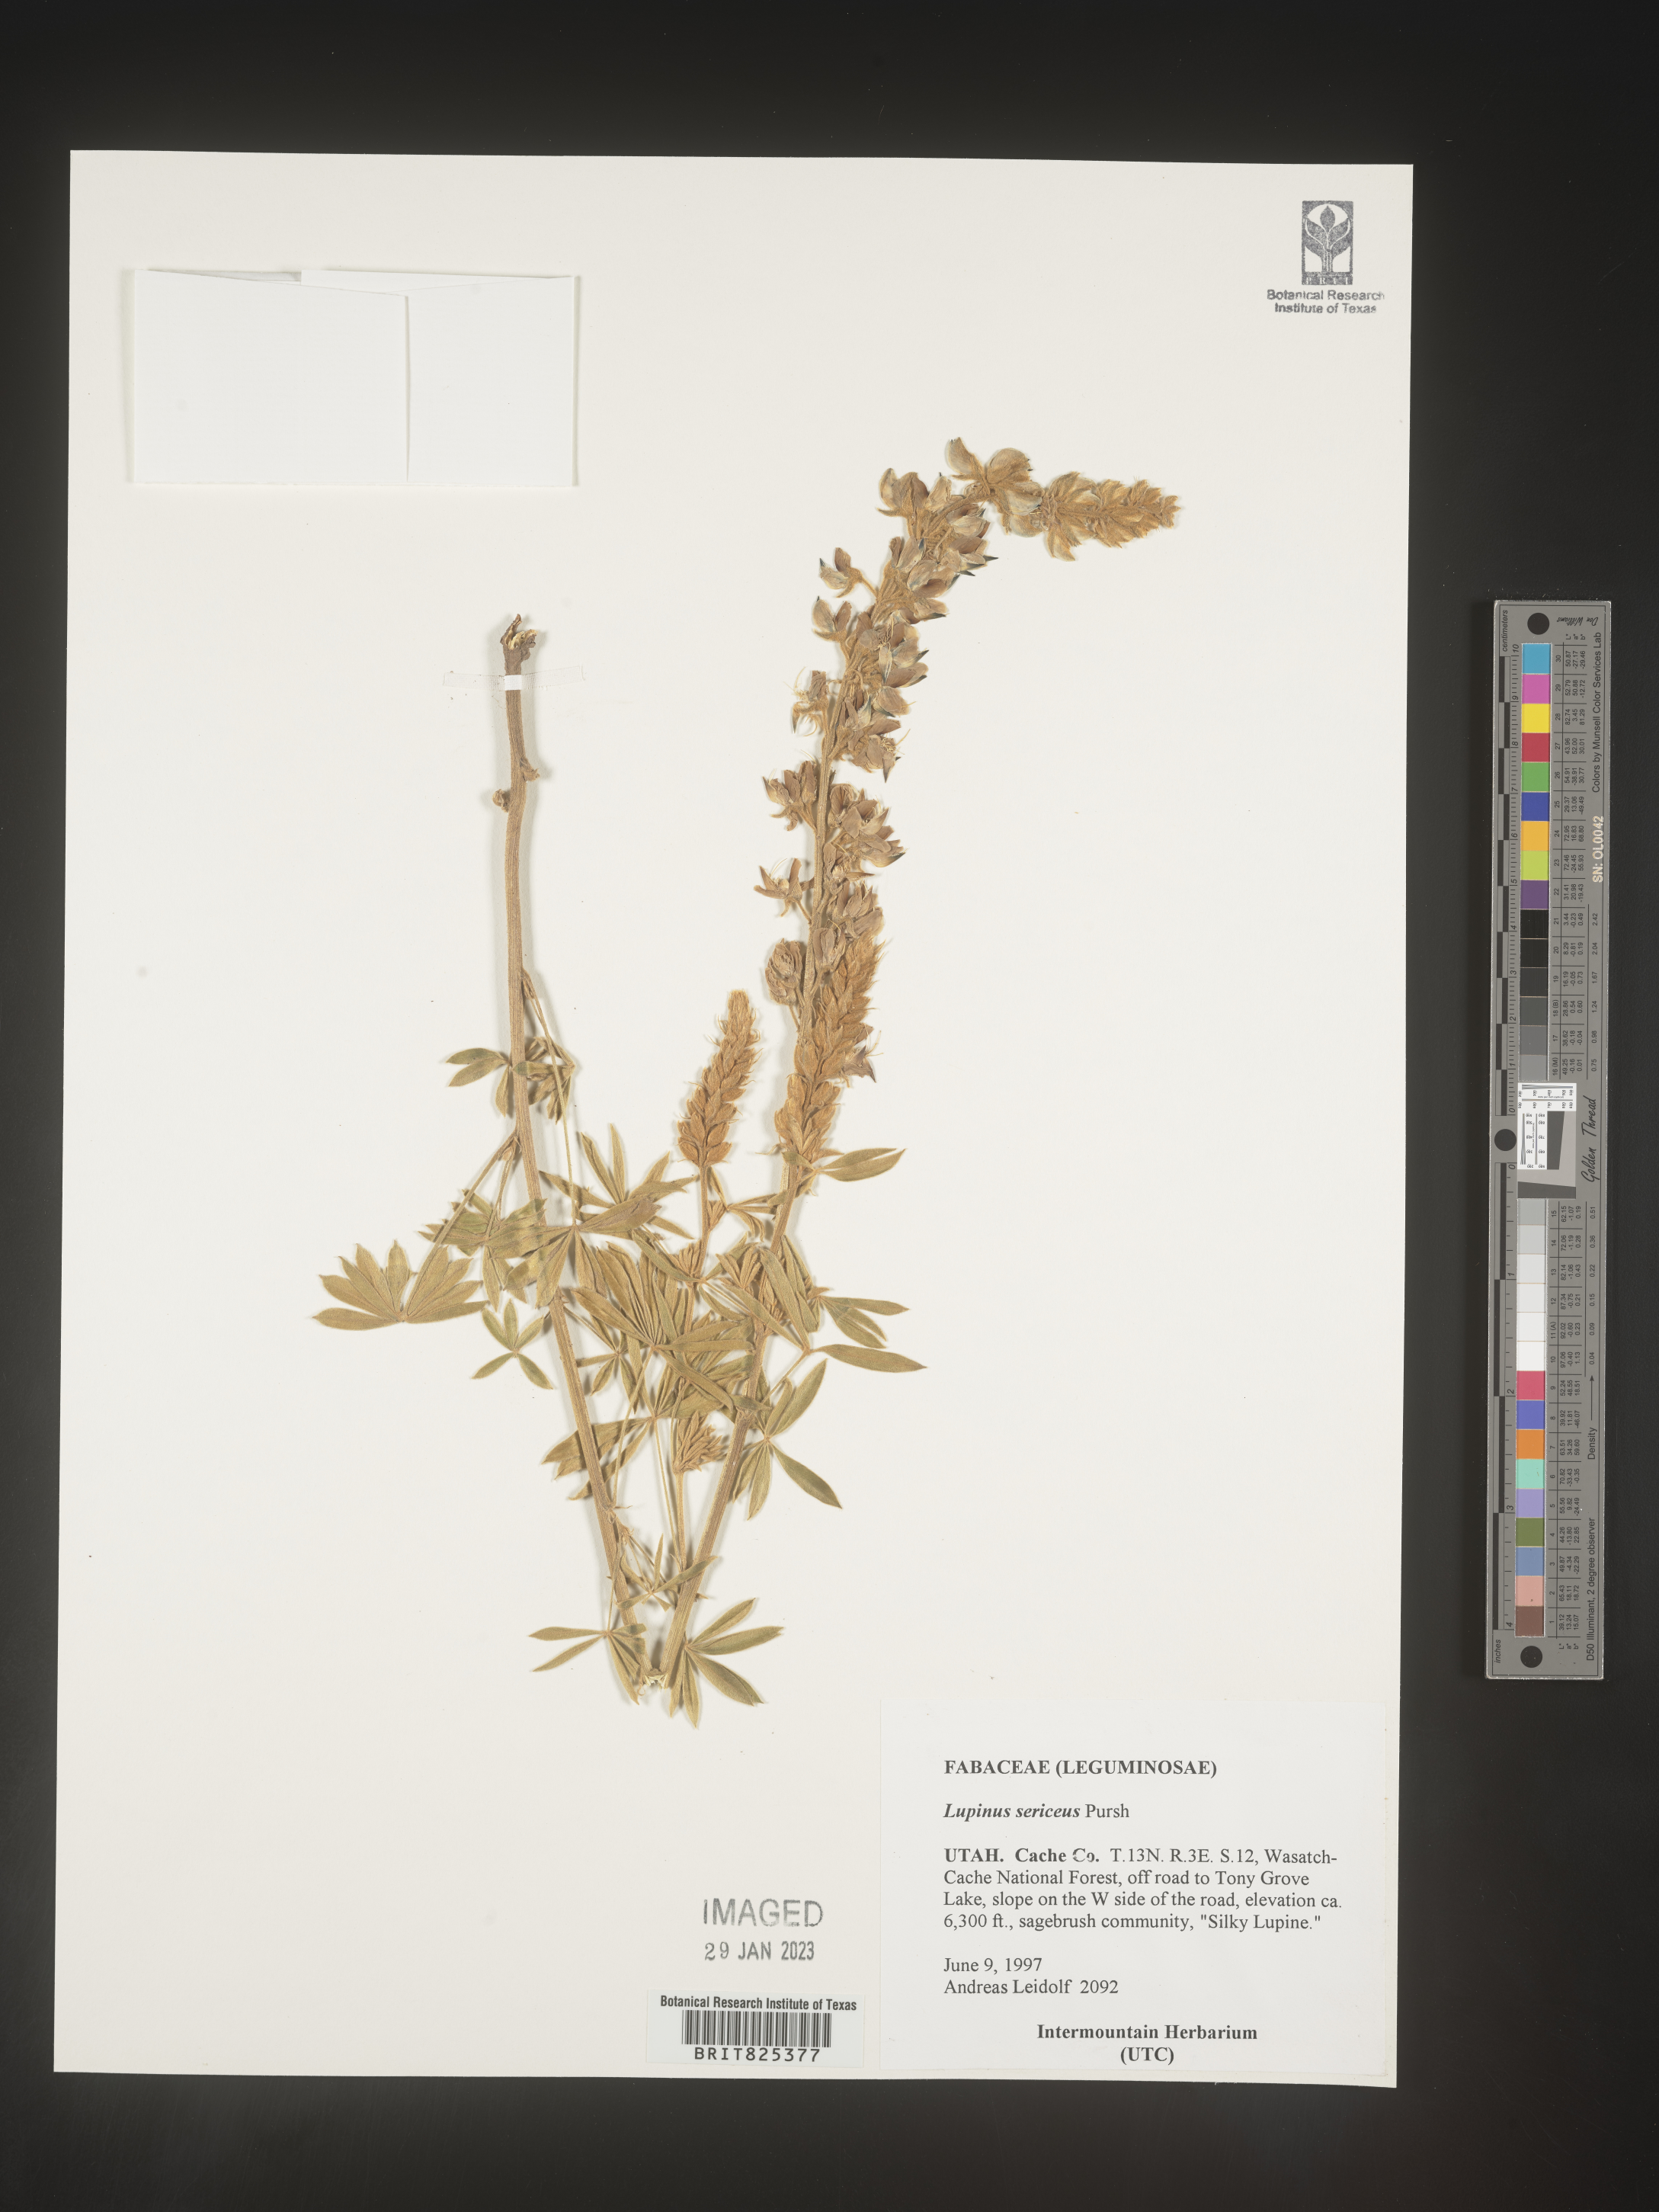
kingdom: Plantae
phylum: Tracheophyta
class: Magnoliopsida
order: Fabales
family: Fabaceae
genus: Lupinus
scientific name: Lupinus sericeus
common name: Silky lupine
